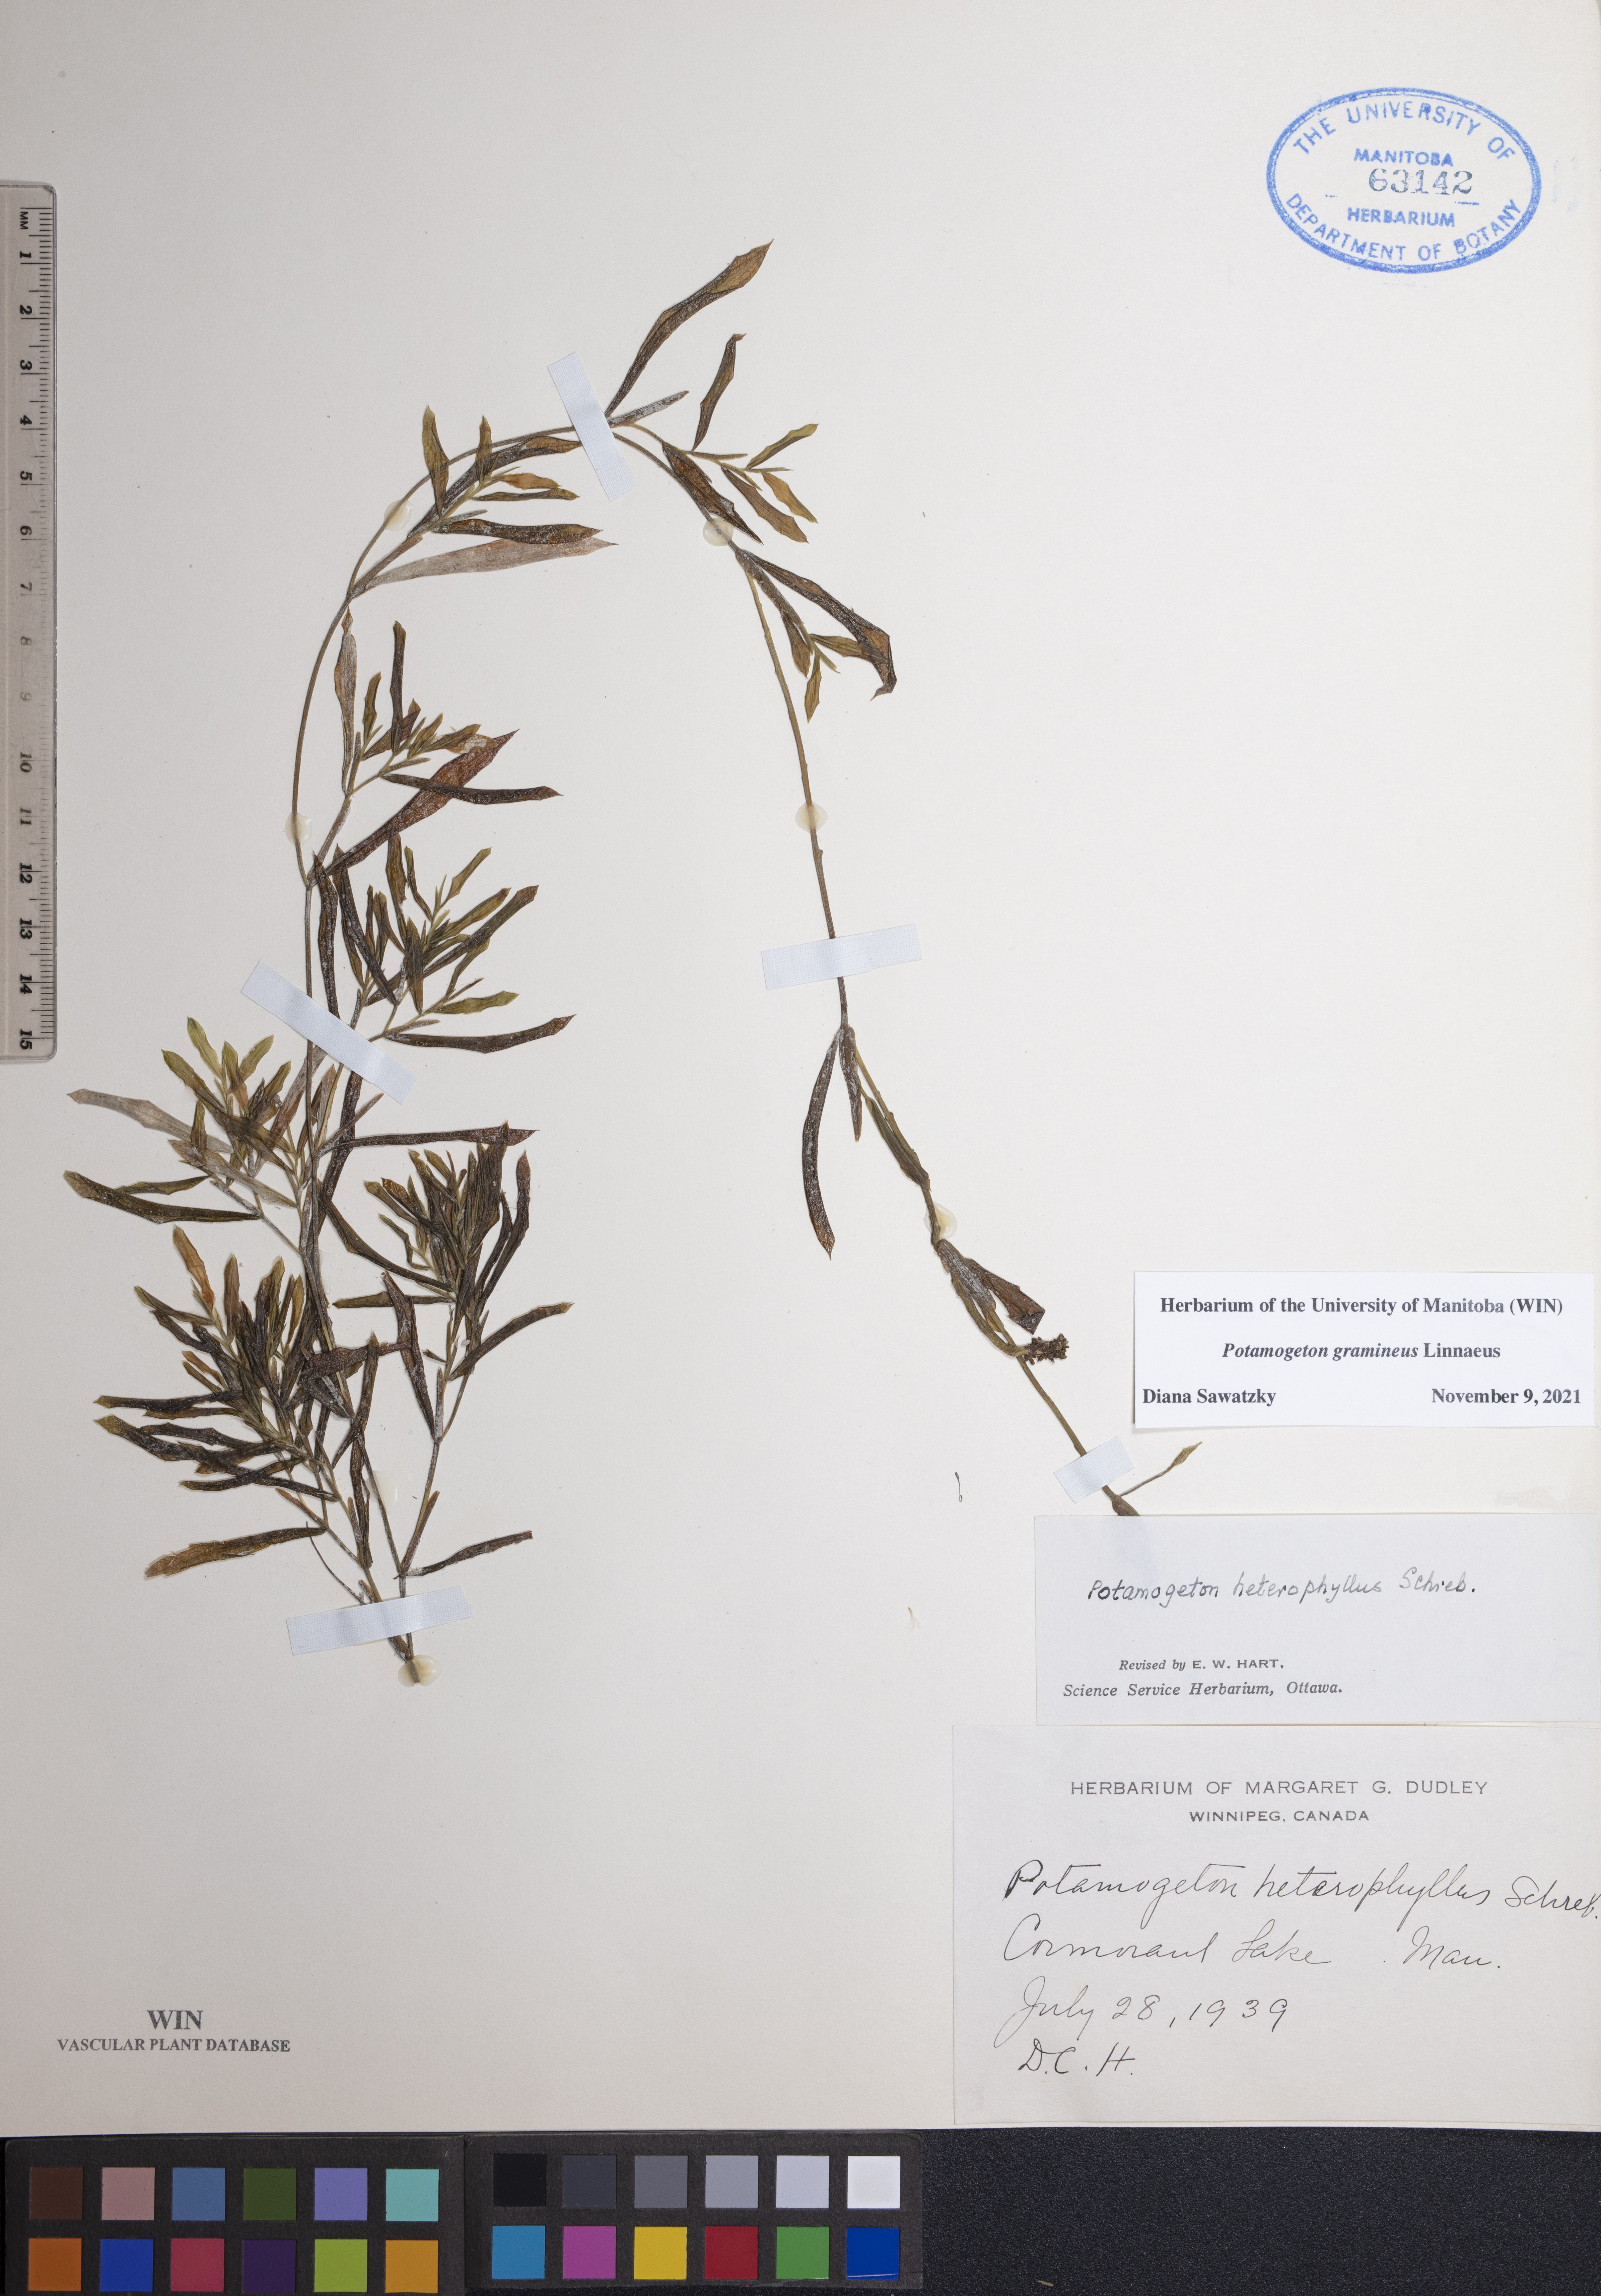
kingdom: Plantae
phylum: Tracheophyta
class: Liliopsida
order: Alismatales
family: Potamogetonaceae
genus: Potamogeton
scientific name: Potamogeton gramineus
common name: Various-leaved pondweed
